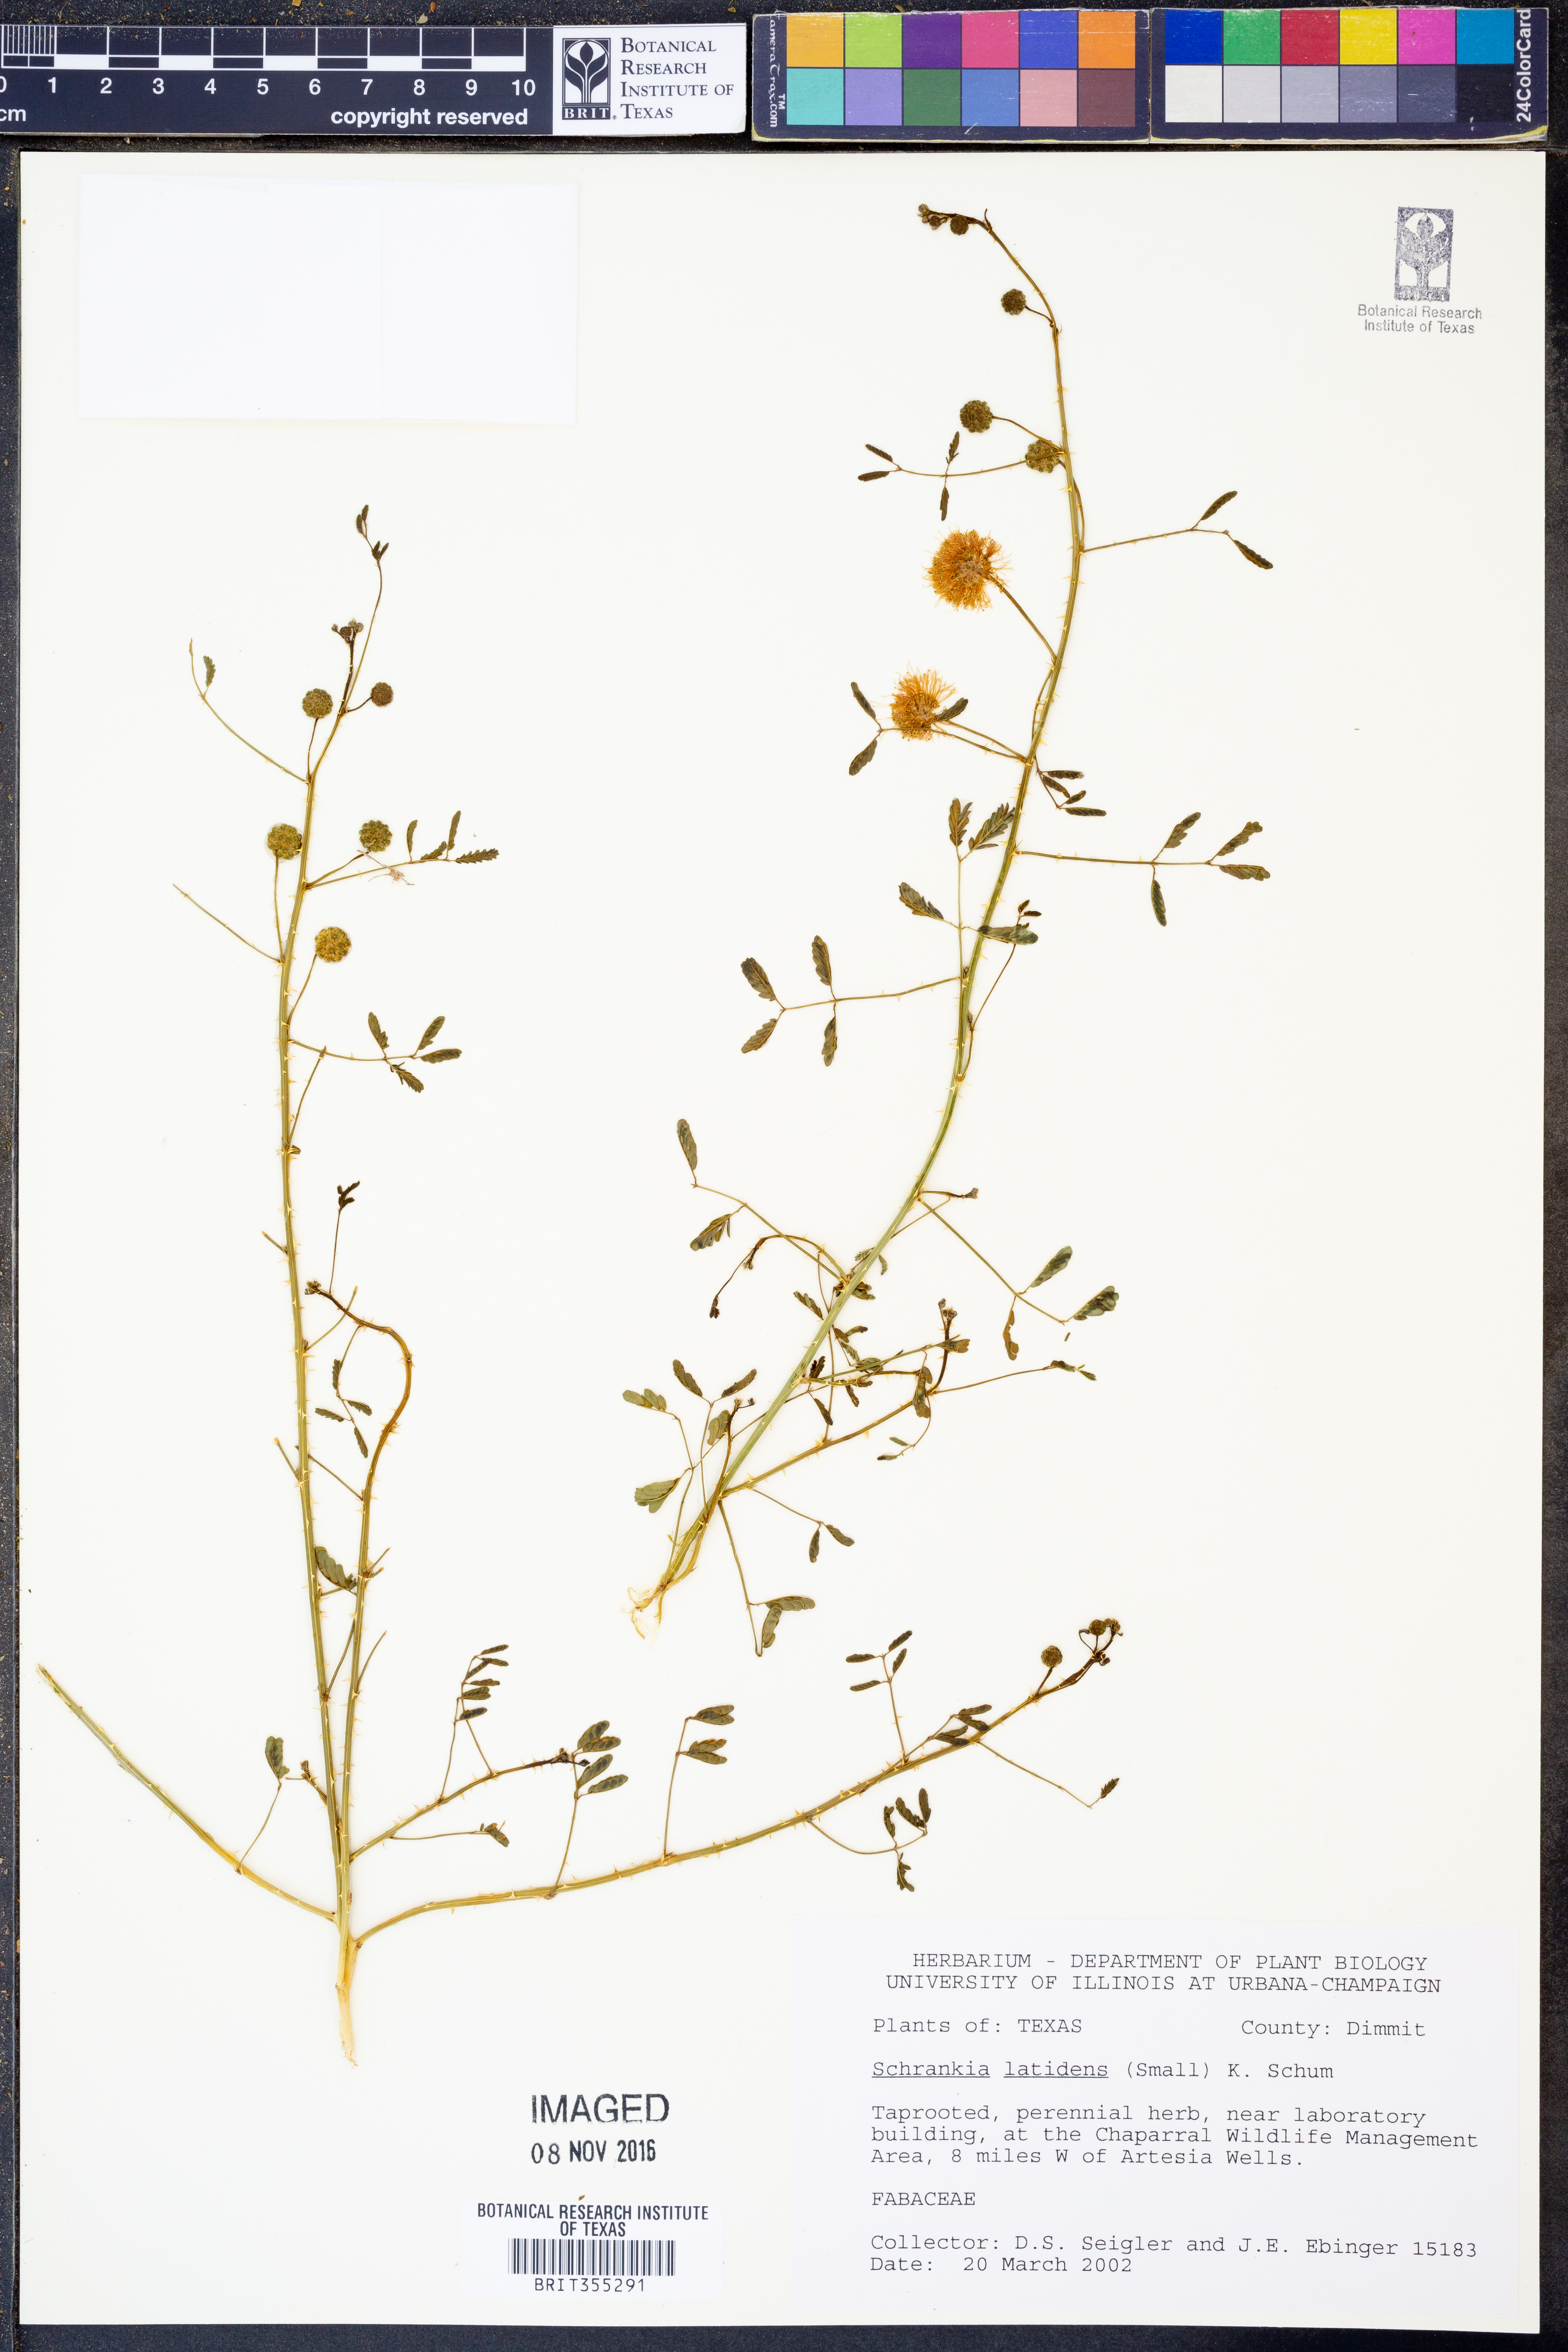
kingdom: Plantae
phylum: Tracheophyta
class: Magnoliopsida
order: Fabales
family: Fabaceae
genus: Mimosa
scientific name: Mimosa quadrivalvis
